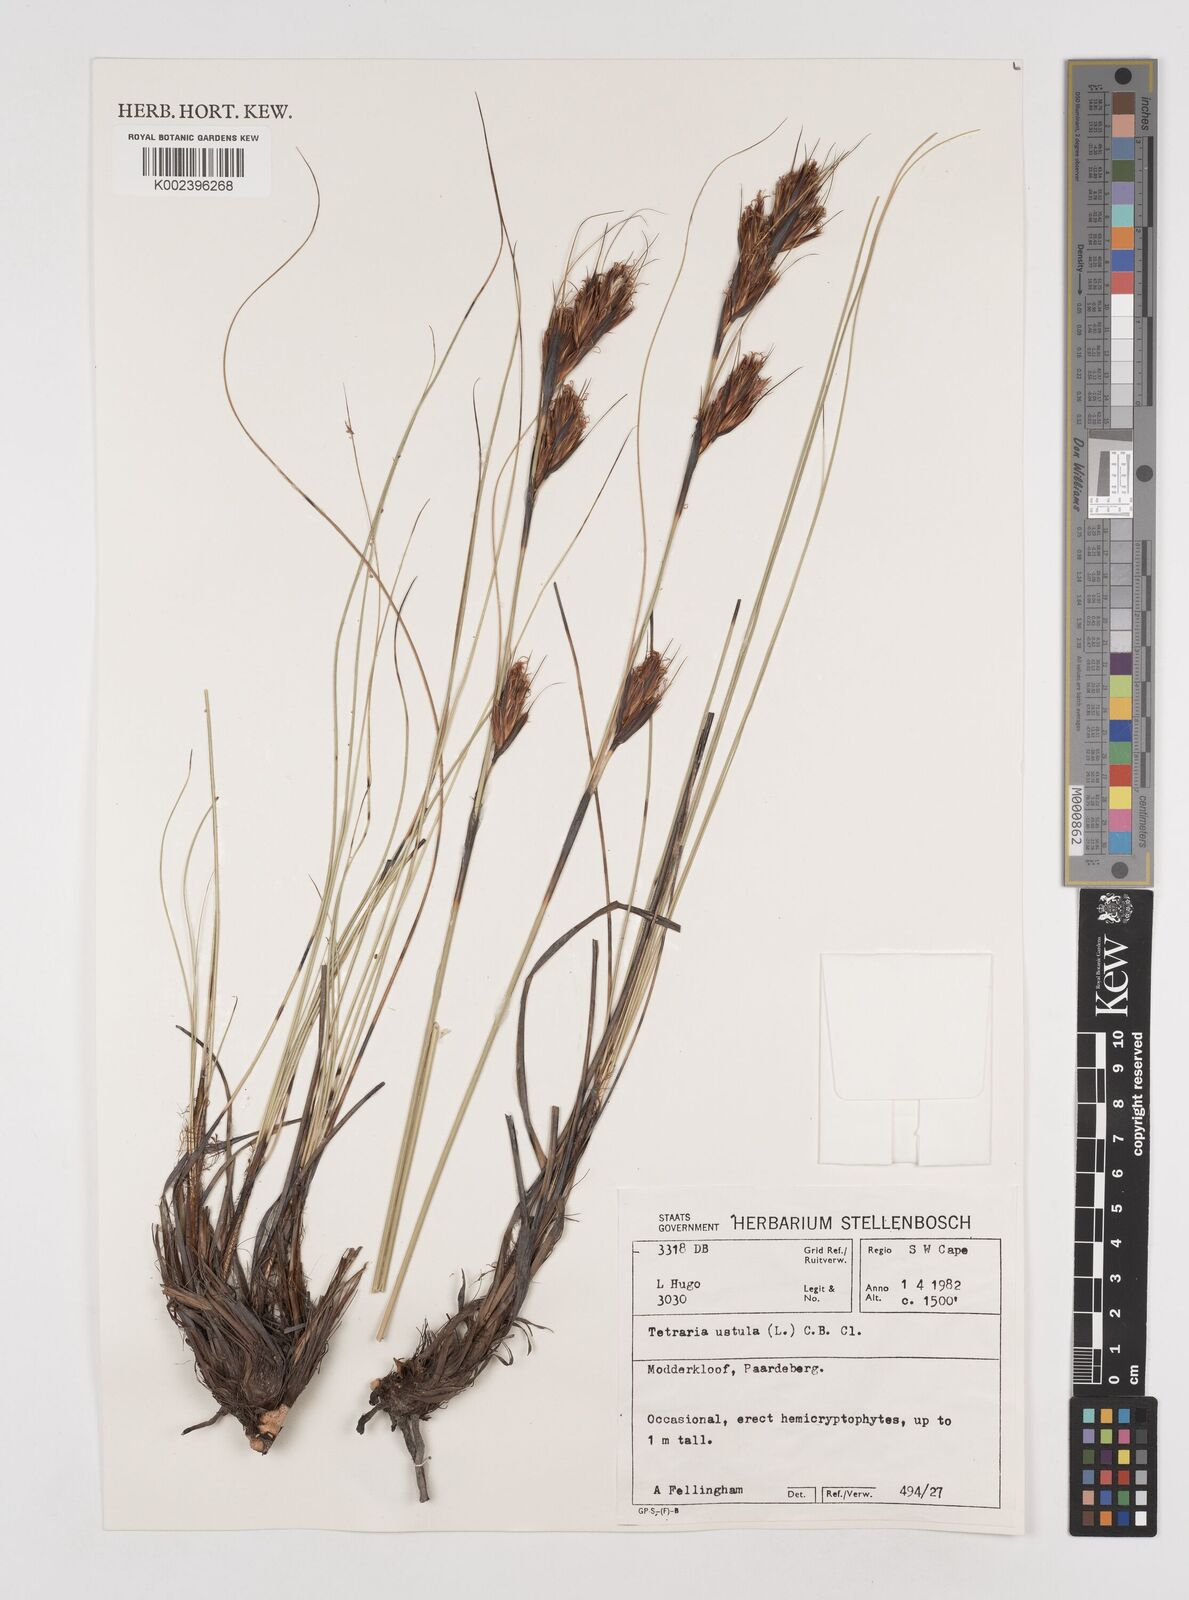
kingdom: Plantae
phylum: Tracheophyta
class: Liliopsida
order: Poales
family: Cyperaceae
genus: Tetraria
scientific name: Tetraria ustulata
